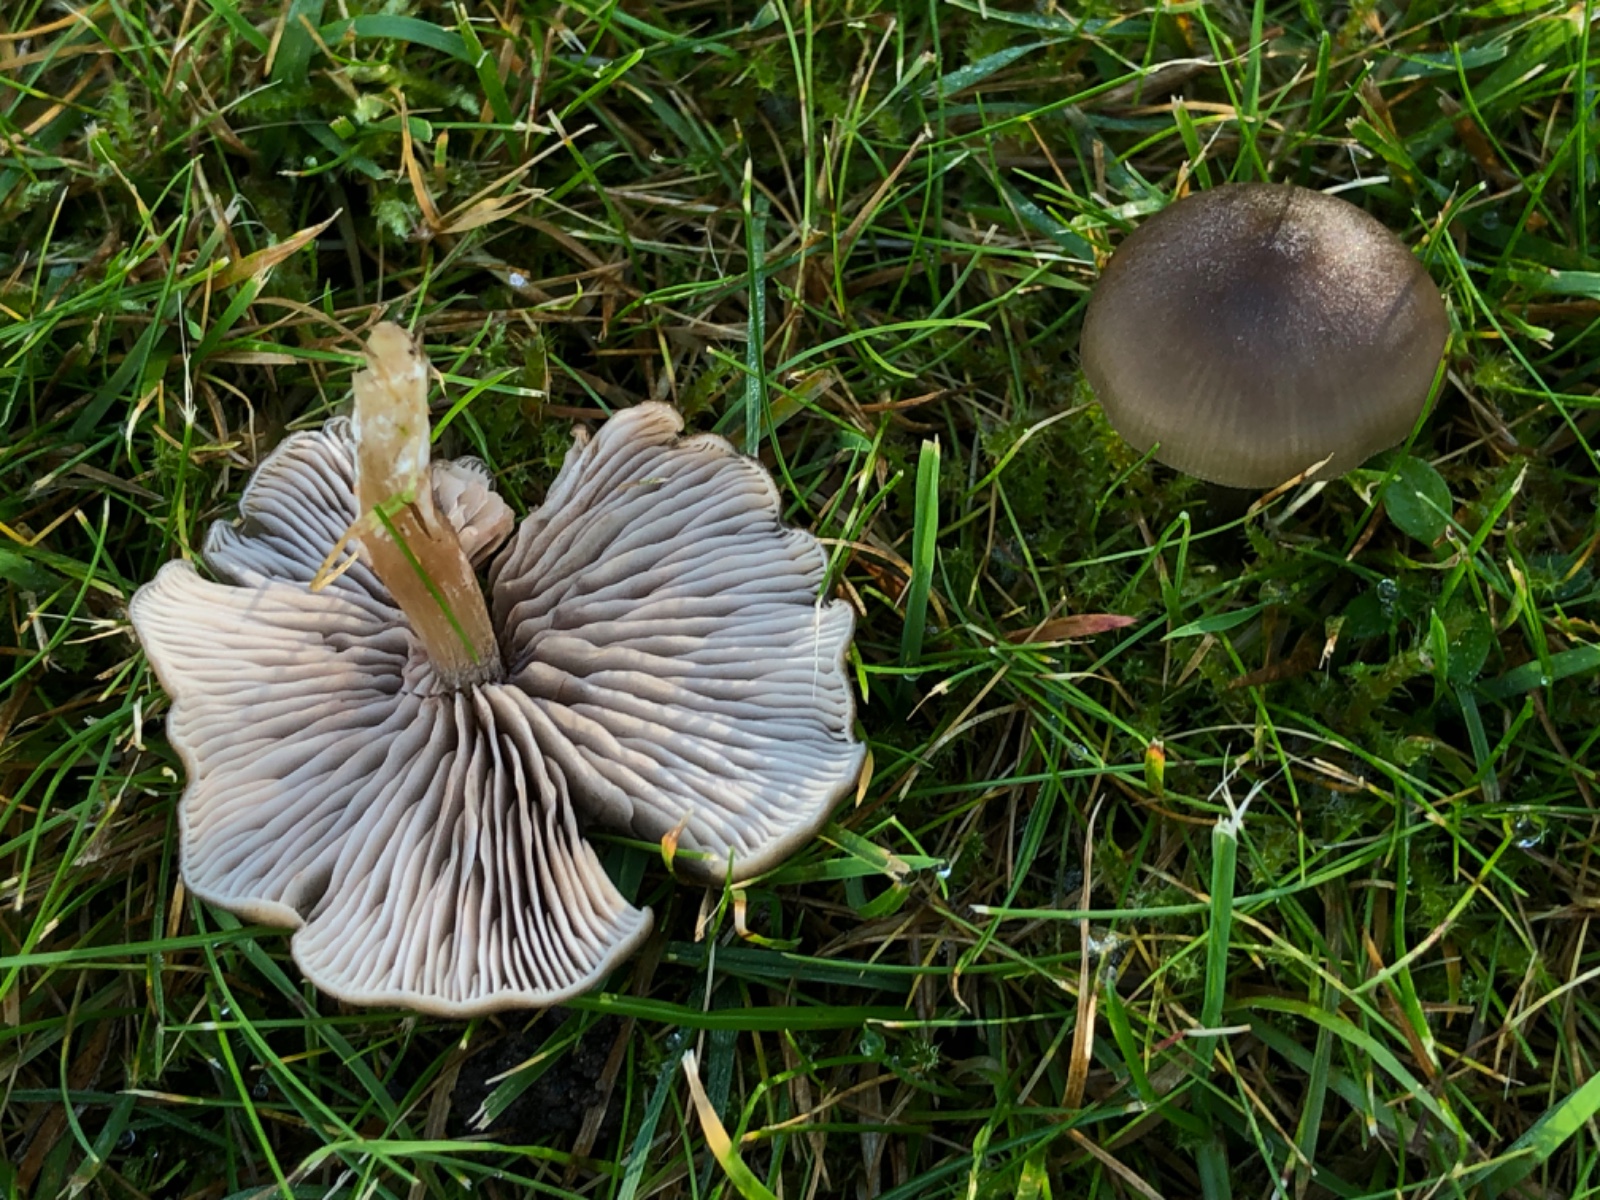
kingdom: Fungi
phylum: Basidiomycota
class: Agaricomycetes
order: Agaricales
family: Entolomataceae
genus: Entoloma
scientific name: Entoloma sericeum
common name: silkeglinsende rødblad
